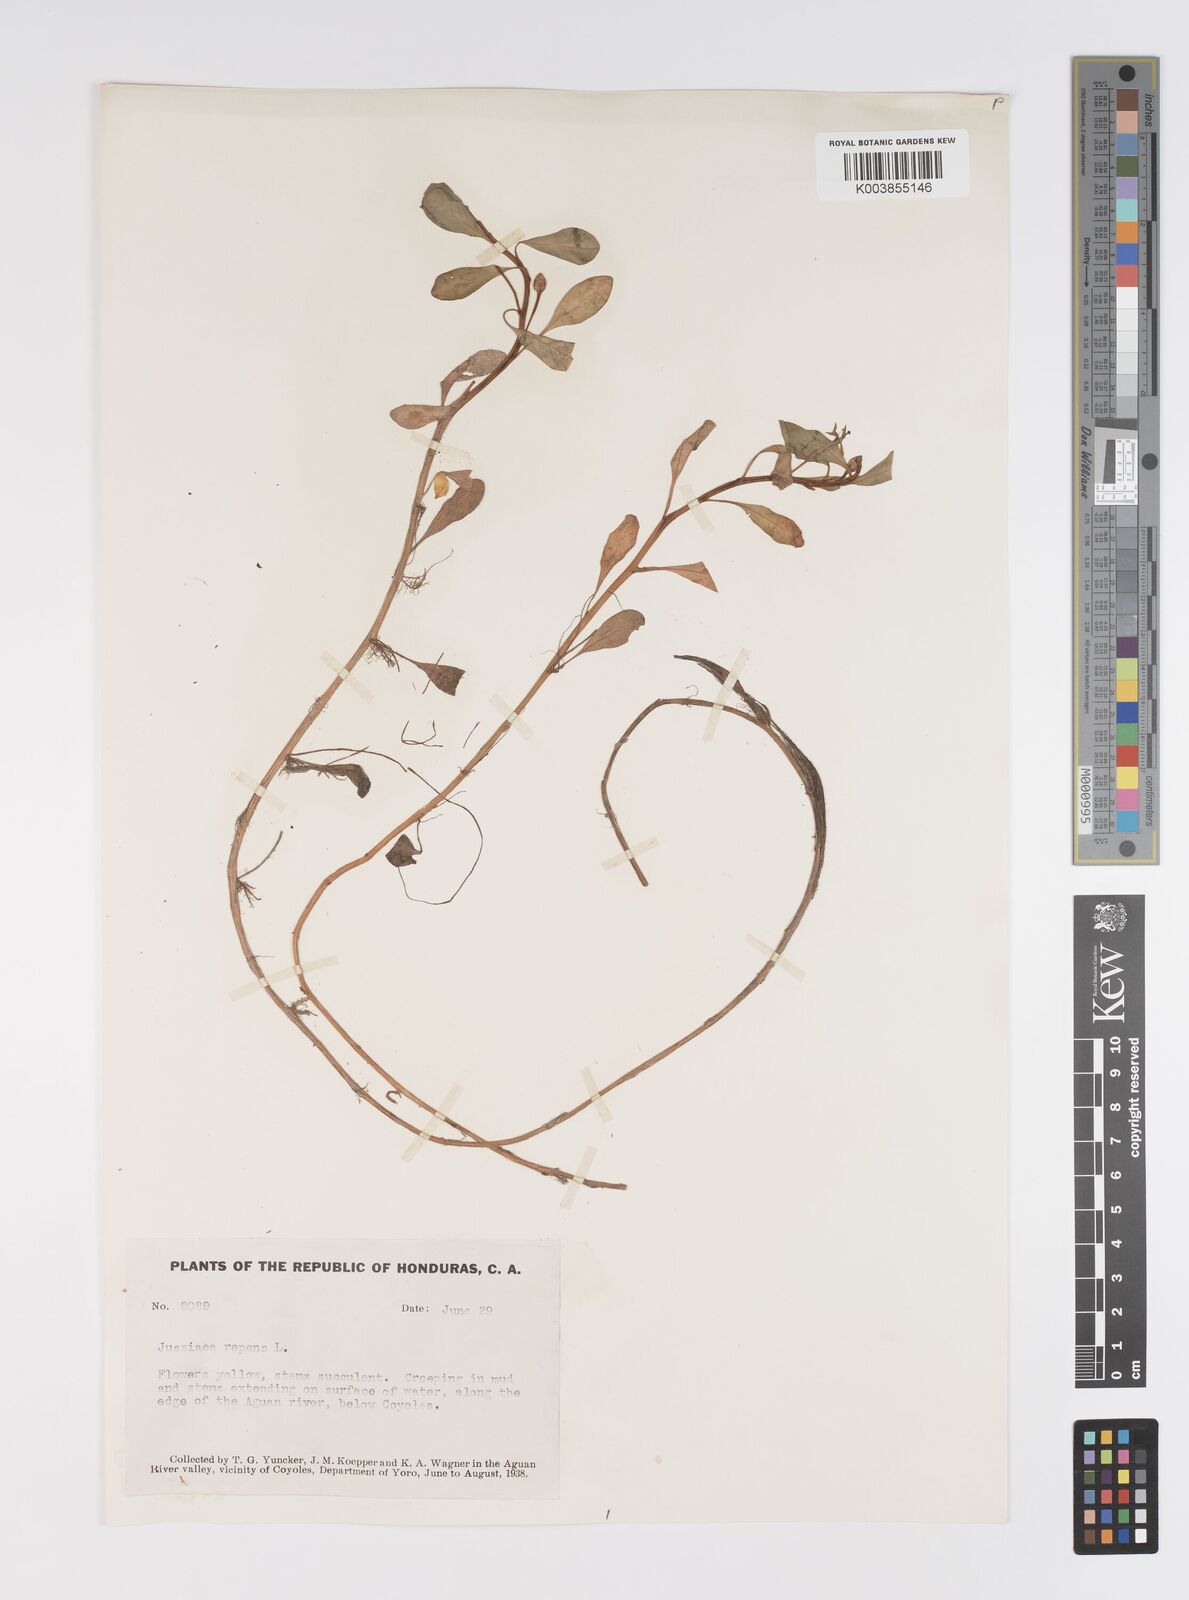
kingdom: Plantae
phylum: Tracheophyta
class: Magnoliopsida
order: Myrtales
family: Onagraceae
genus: Ludwigia
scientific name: Ludwigia adscendens
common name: Creeping water primrose
